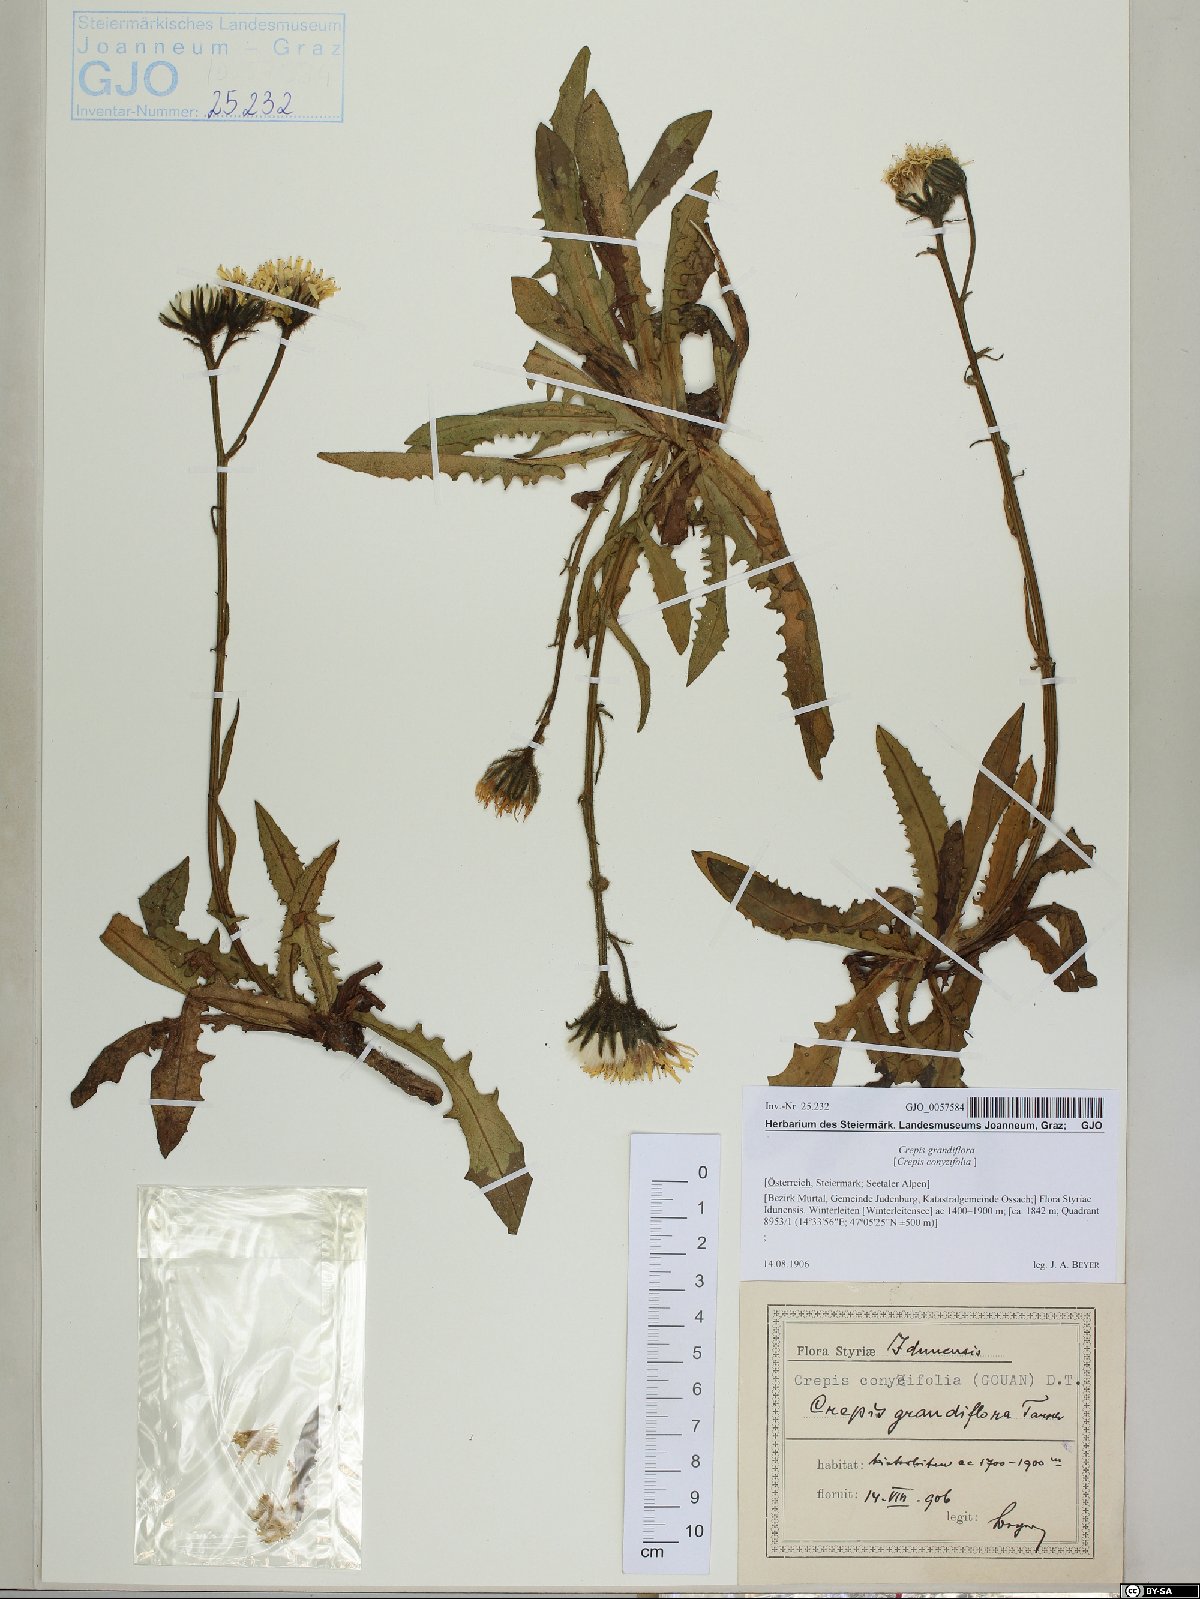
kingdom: Plantae
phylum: Tracheophyta
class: Magnoliopsida
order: Asterales
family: Asteraceae
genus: Crepis
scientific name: Crepis pyrenaica
